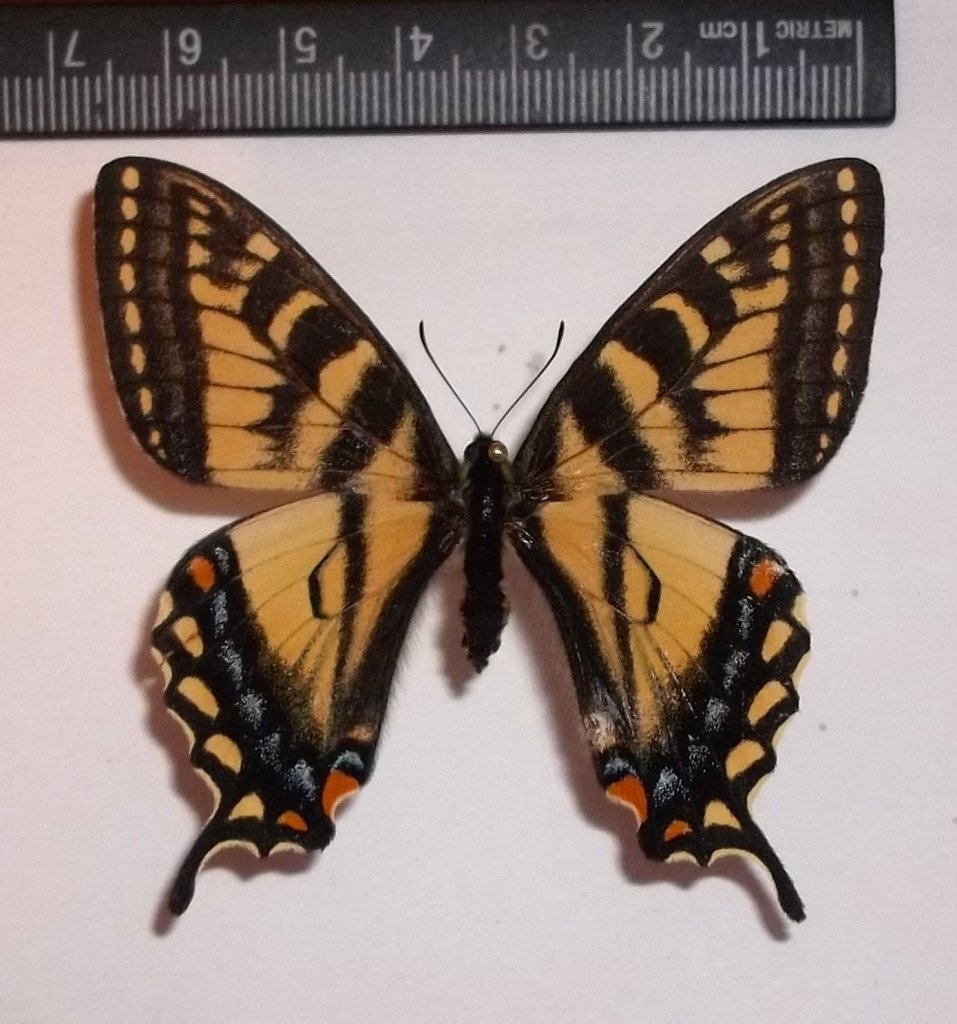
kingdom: Animalia
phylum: Arthropoda
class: Insecta
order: Lepidoptera
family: Papilionidae
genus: Pterourus
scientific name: Pterourus canadensis
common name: Canadian Tiger Swallowtail
